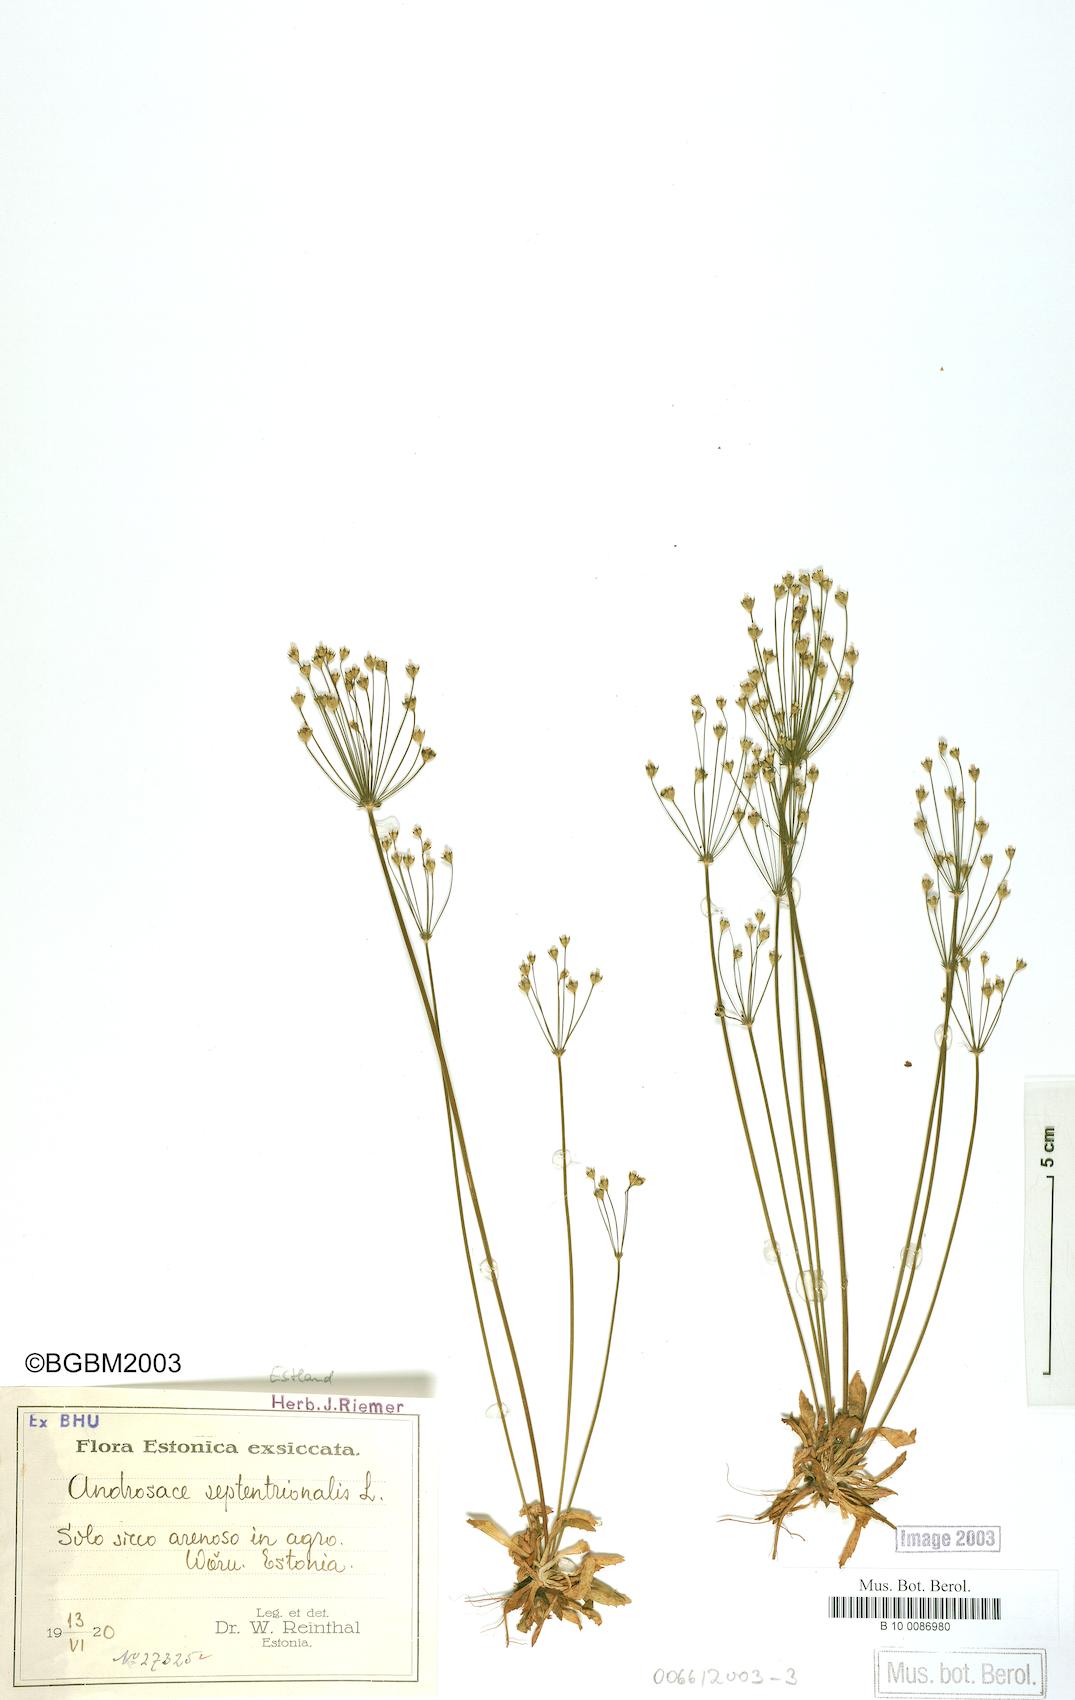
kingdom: Plantae
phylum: Tracheophyta
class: Magnoliopsida
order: Ericales
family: Primulaceae
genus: Androsace
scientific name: Androsace septentrionalis
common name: Hairy northern fairy-candelabra
